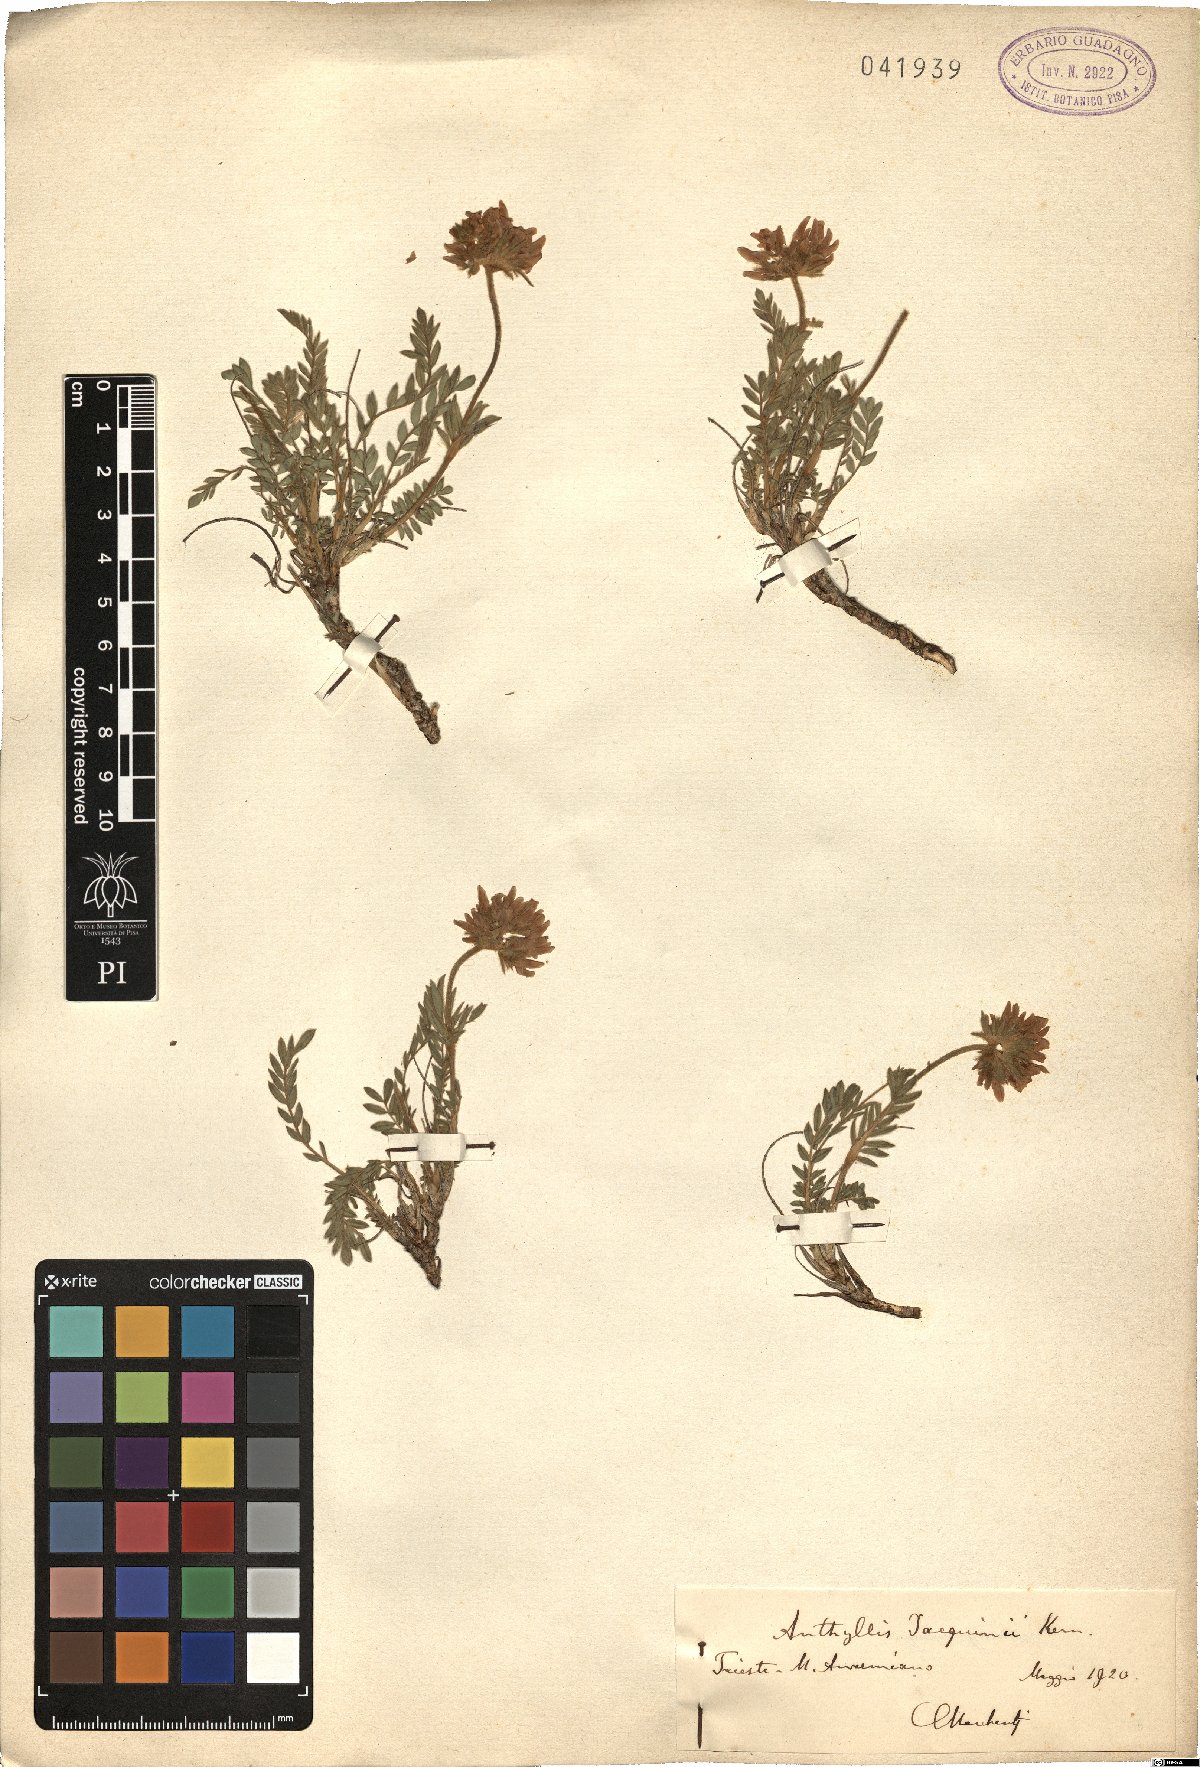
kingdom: Plantae
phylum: Tracheophyta
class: Magnoliopsida
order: Fabales
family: Fabaceae
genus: Anthyllis
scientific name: Anthyllis montana
